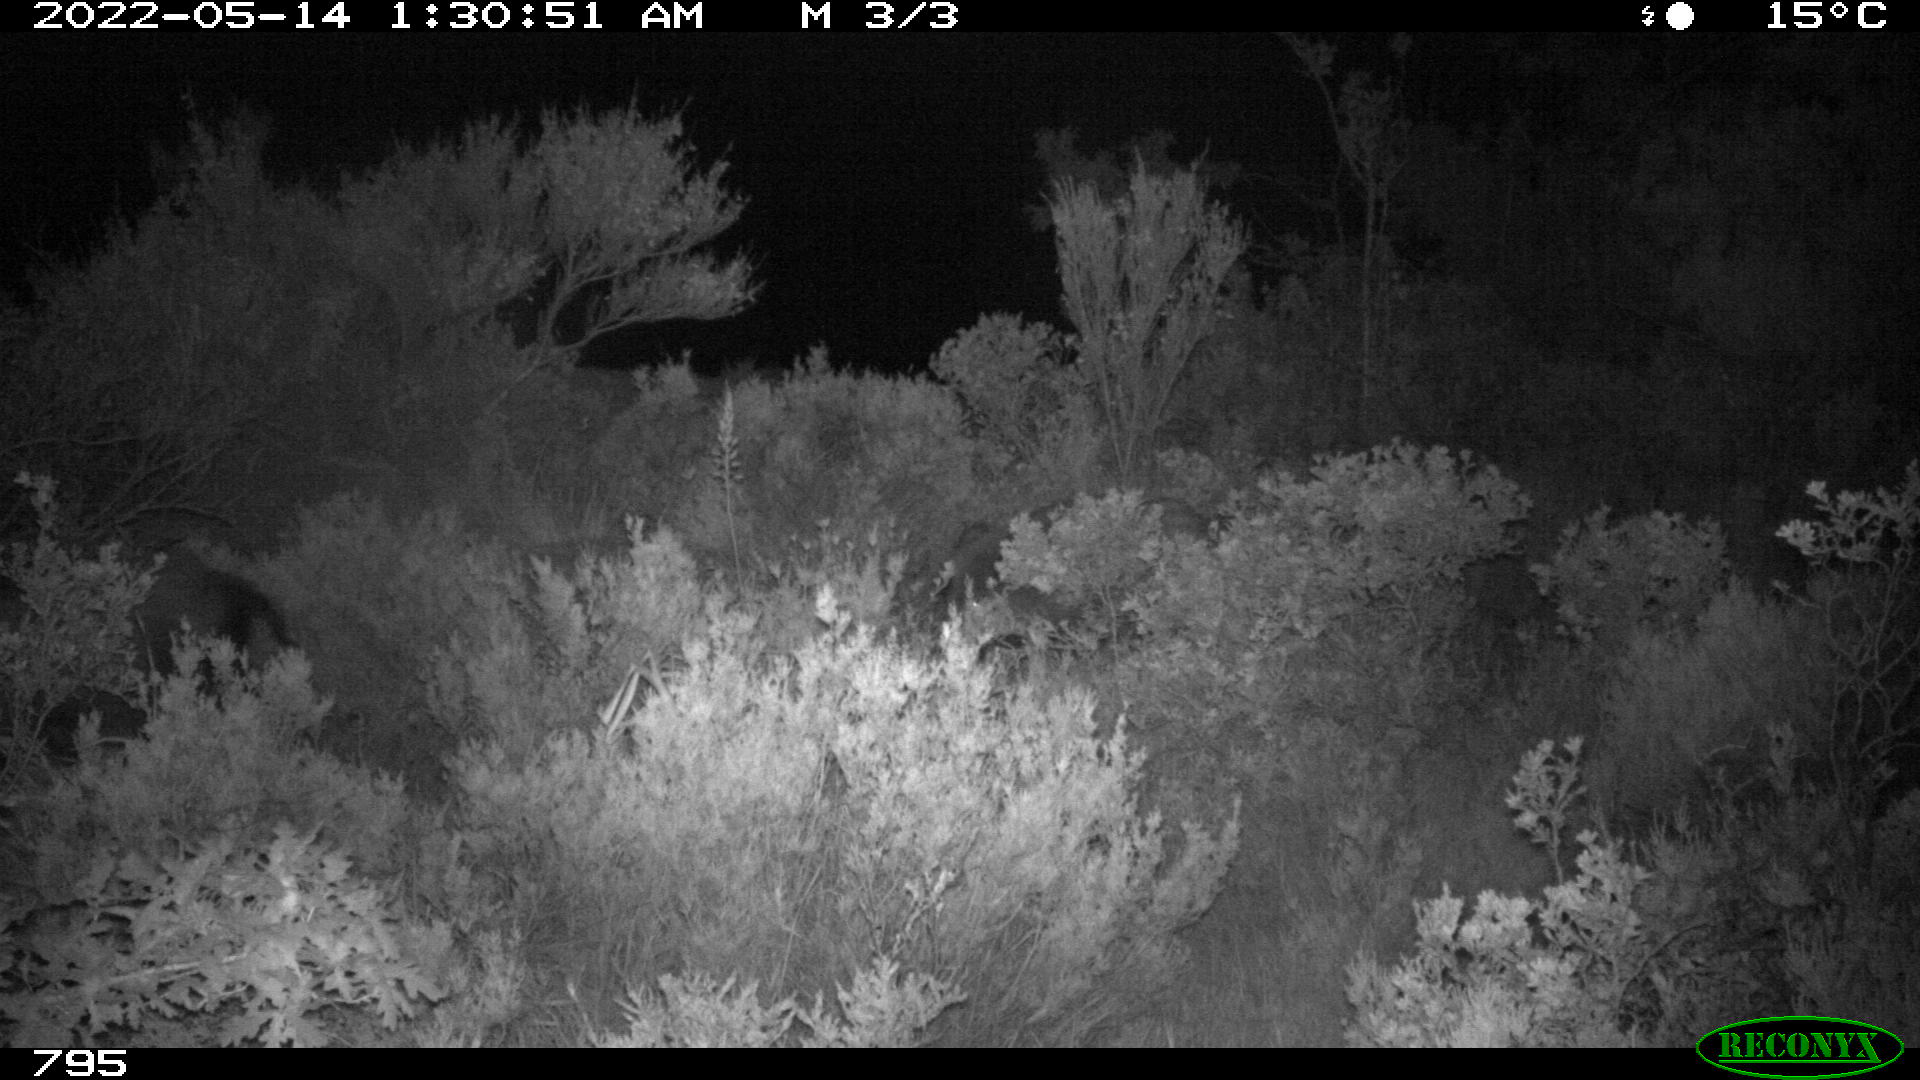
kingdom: Animalia
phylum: Chordata
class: Mammalia
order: Artiodactyla
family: Suidae
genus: Sus
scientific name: Sus scrofa
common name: Wild boar
